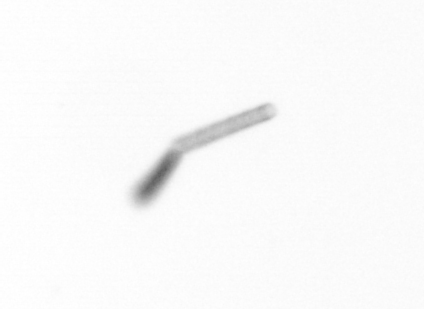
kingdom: Chromista
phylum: Ochrophyta
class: Bacillariophyceae
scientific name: Bacillariophyceae
